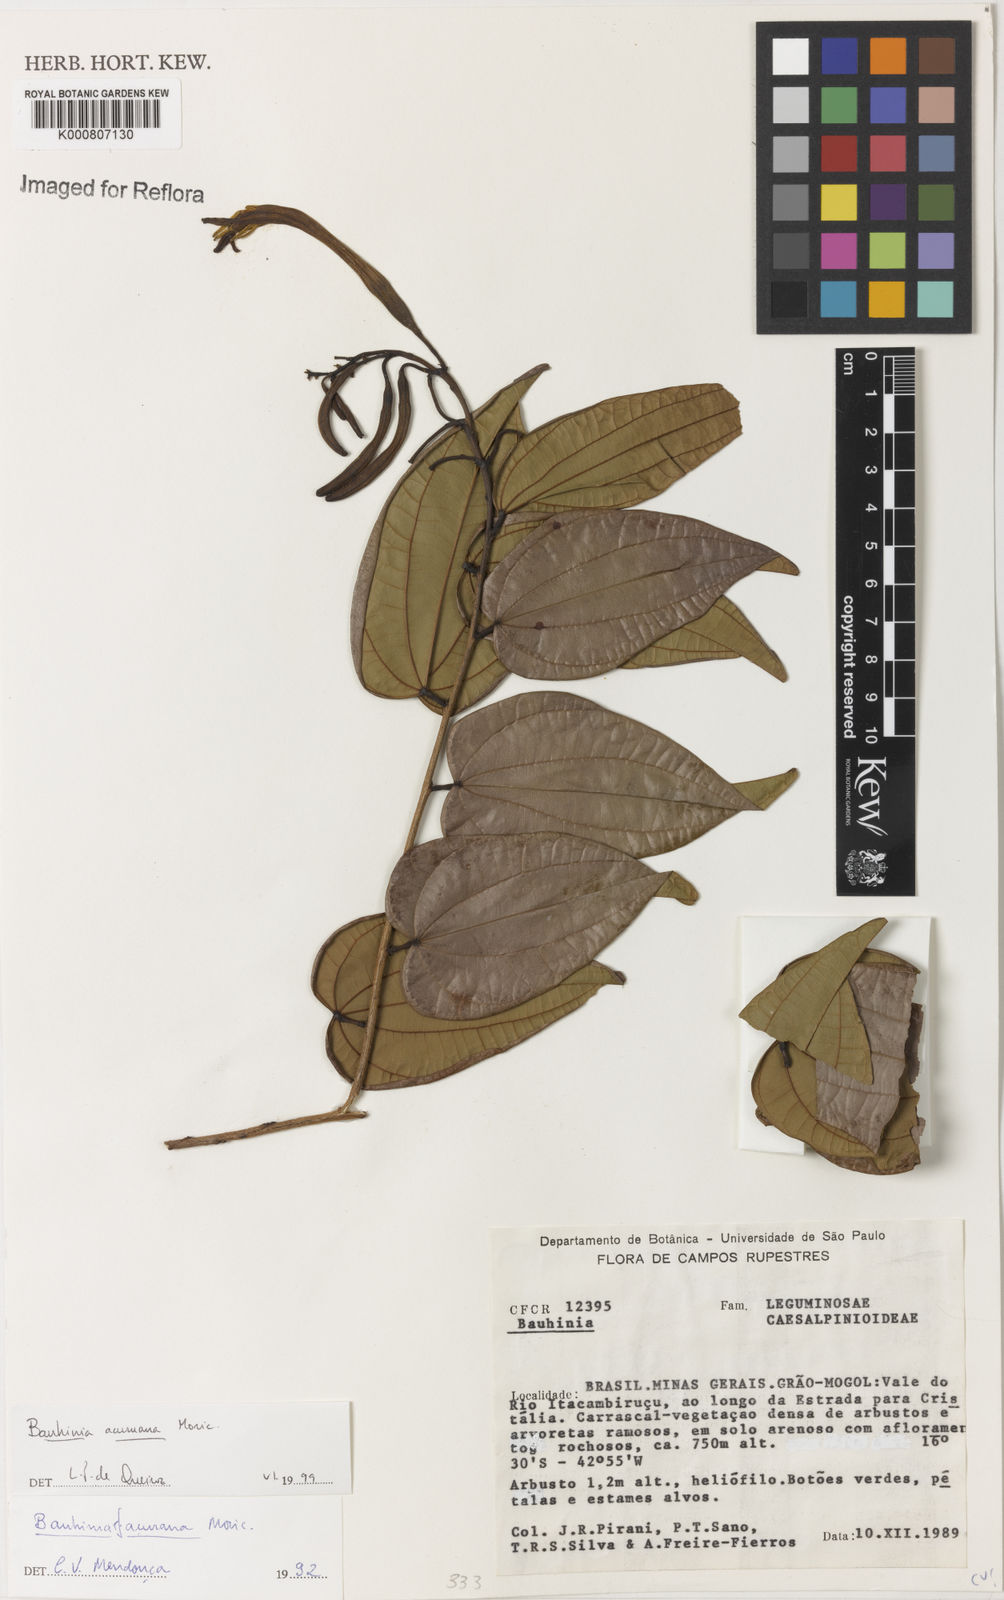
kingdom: Plantae
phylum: Tracheophyta
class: Magnoliopsida
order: Fabales
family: Fabaceae
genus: Bauhinia
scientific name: Bauhinia acuruana
